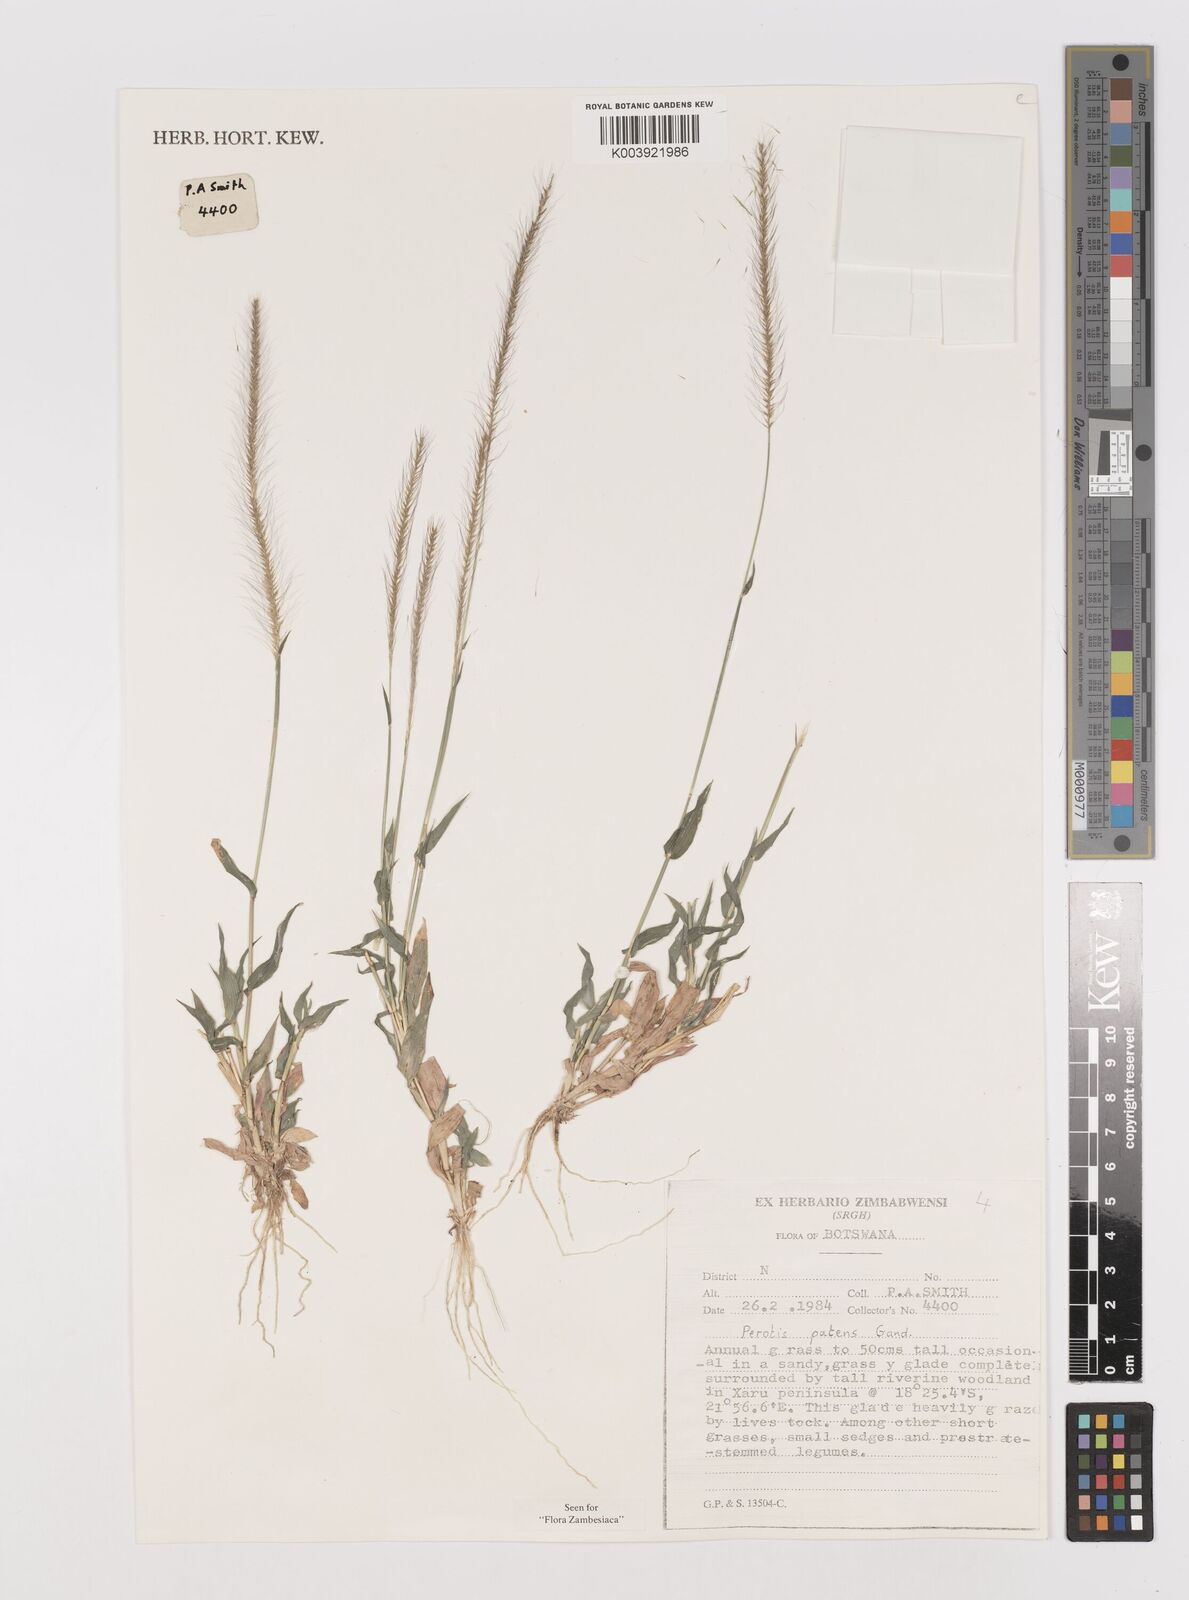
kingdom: Plantae
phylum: Tracheophyta
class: Liliopsida
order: Poales
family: Poaceae
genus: Perotis
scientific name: Perotis patens
